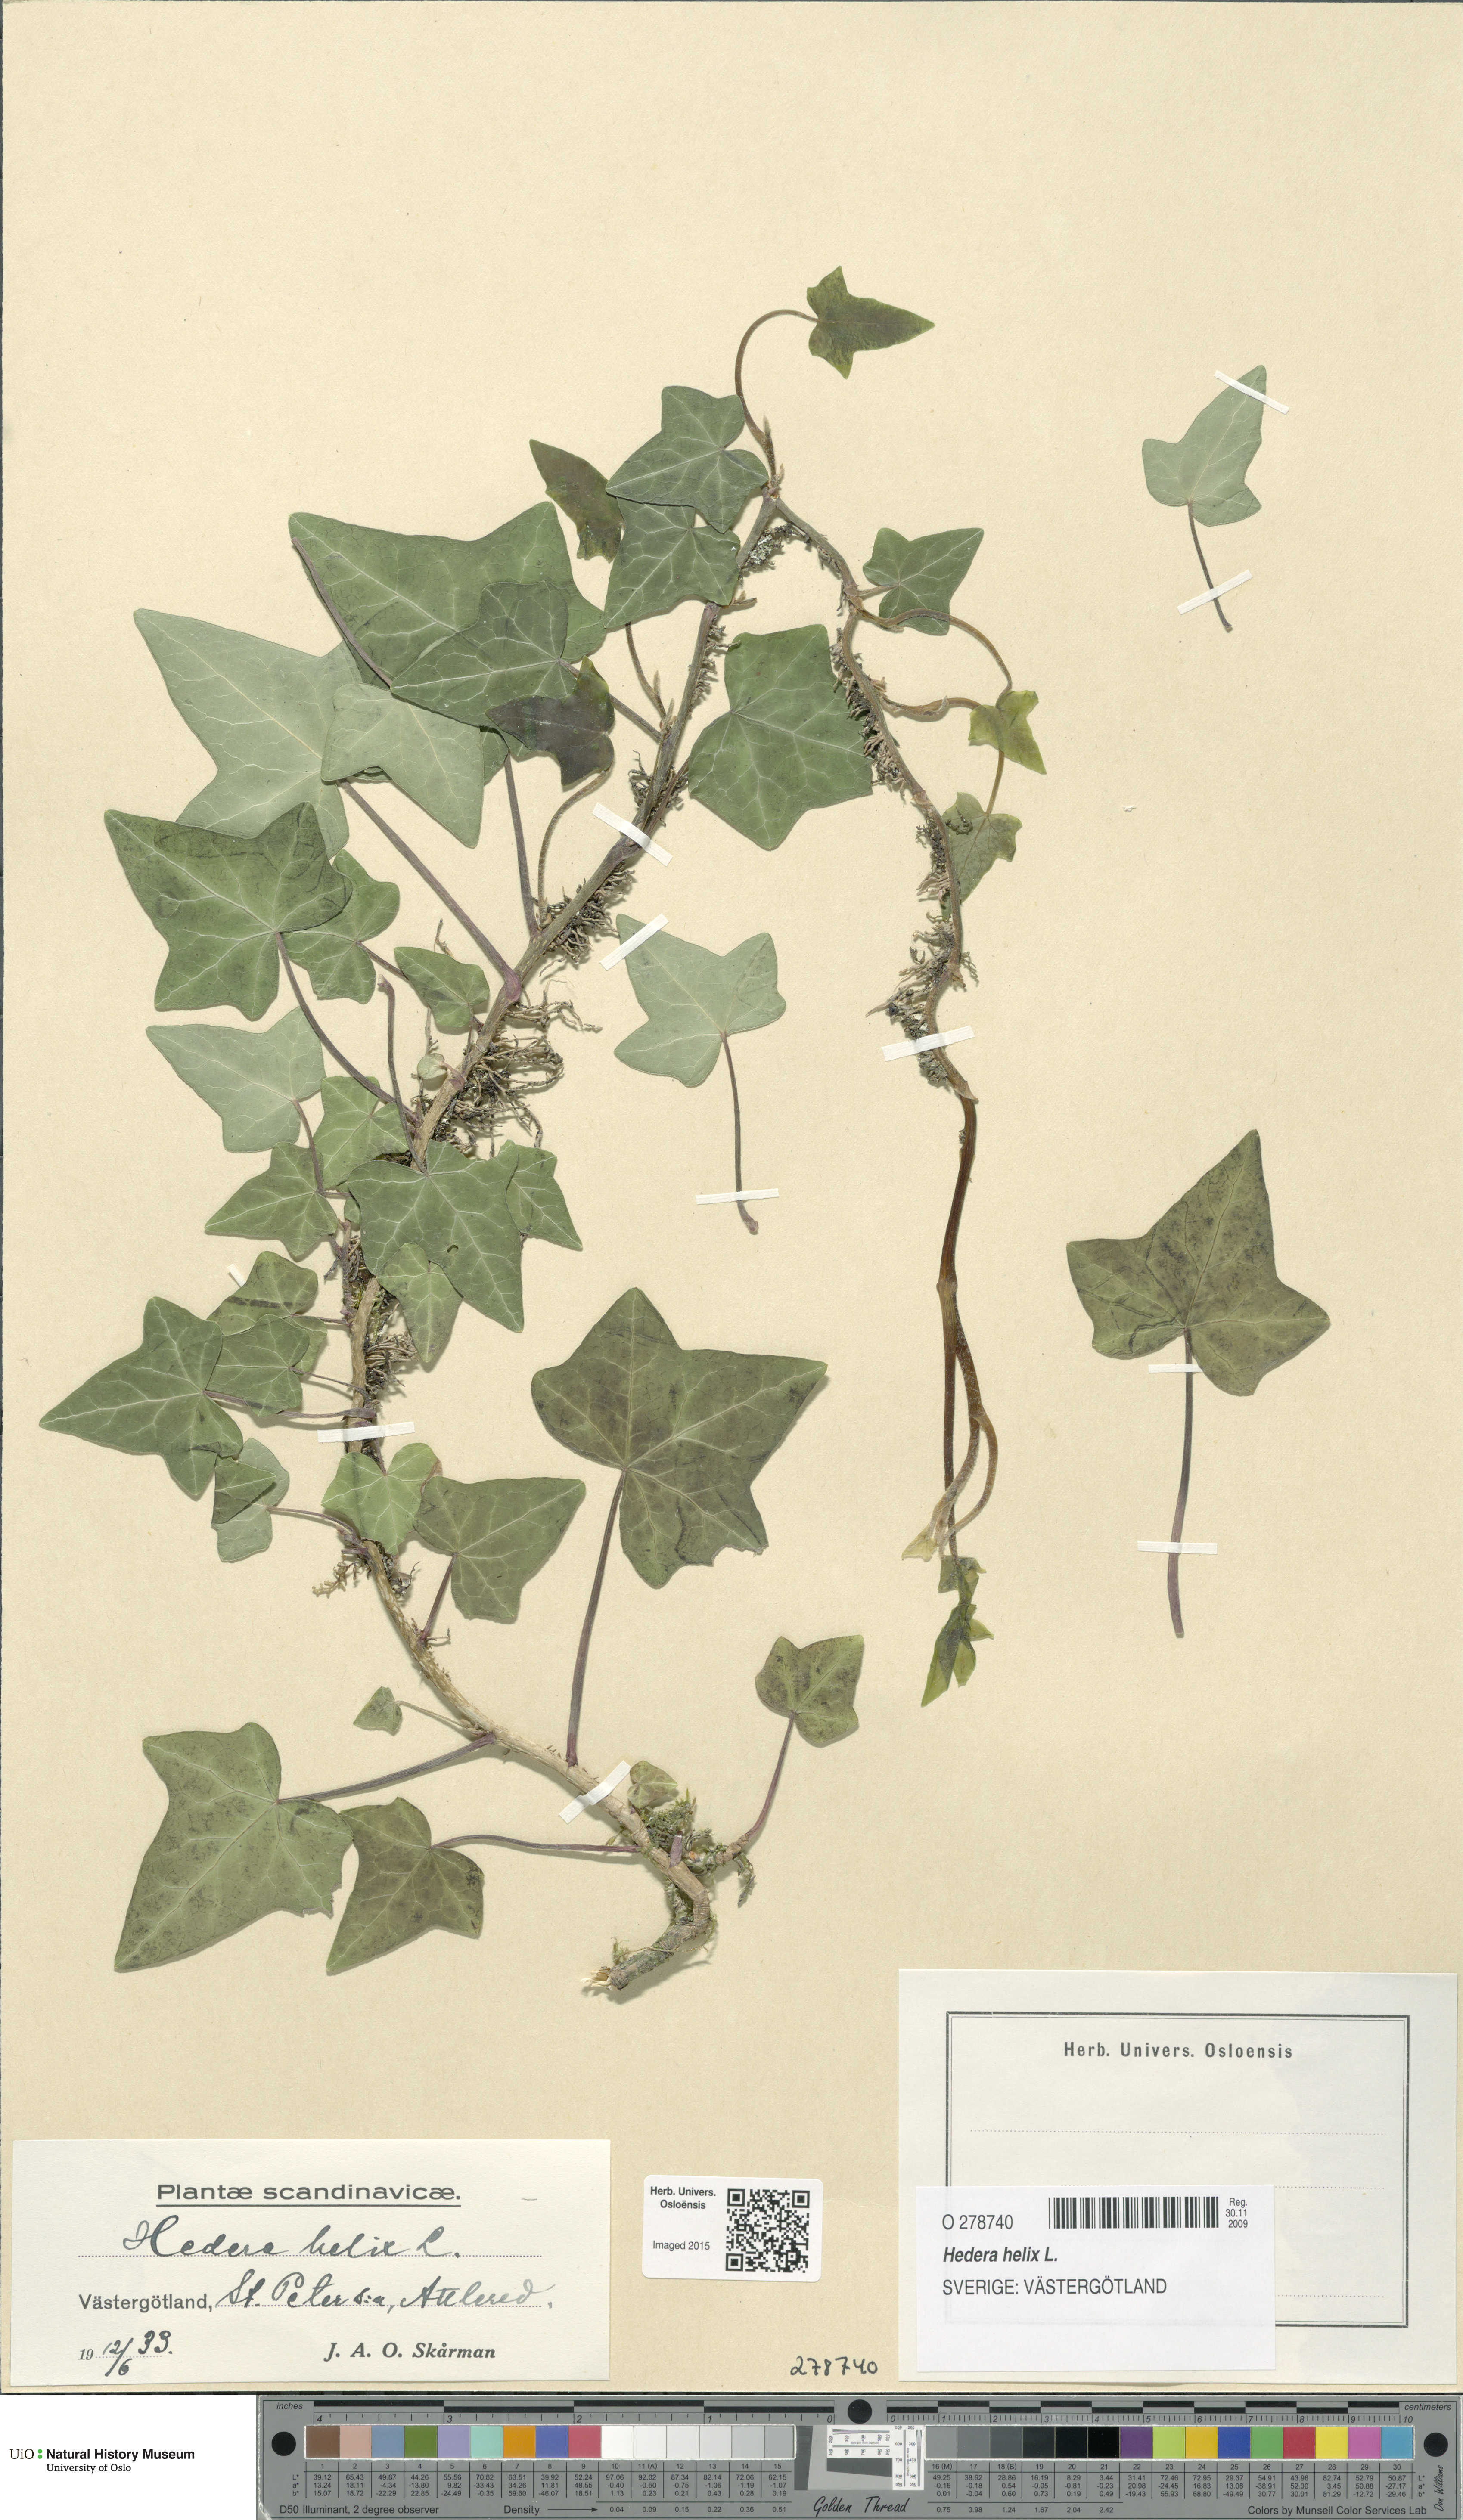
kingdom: Plantae
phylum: Tracheophyta
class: Magnoliopsida
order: Apiales
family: Araliaceae
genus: Hedera
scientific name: Hedera helix
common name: Ivy
